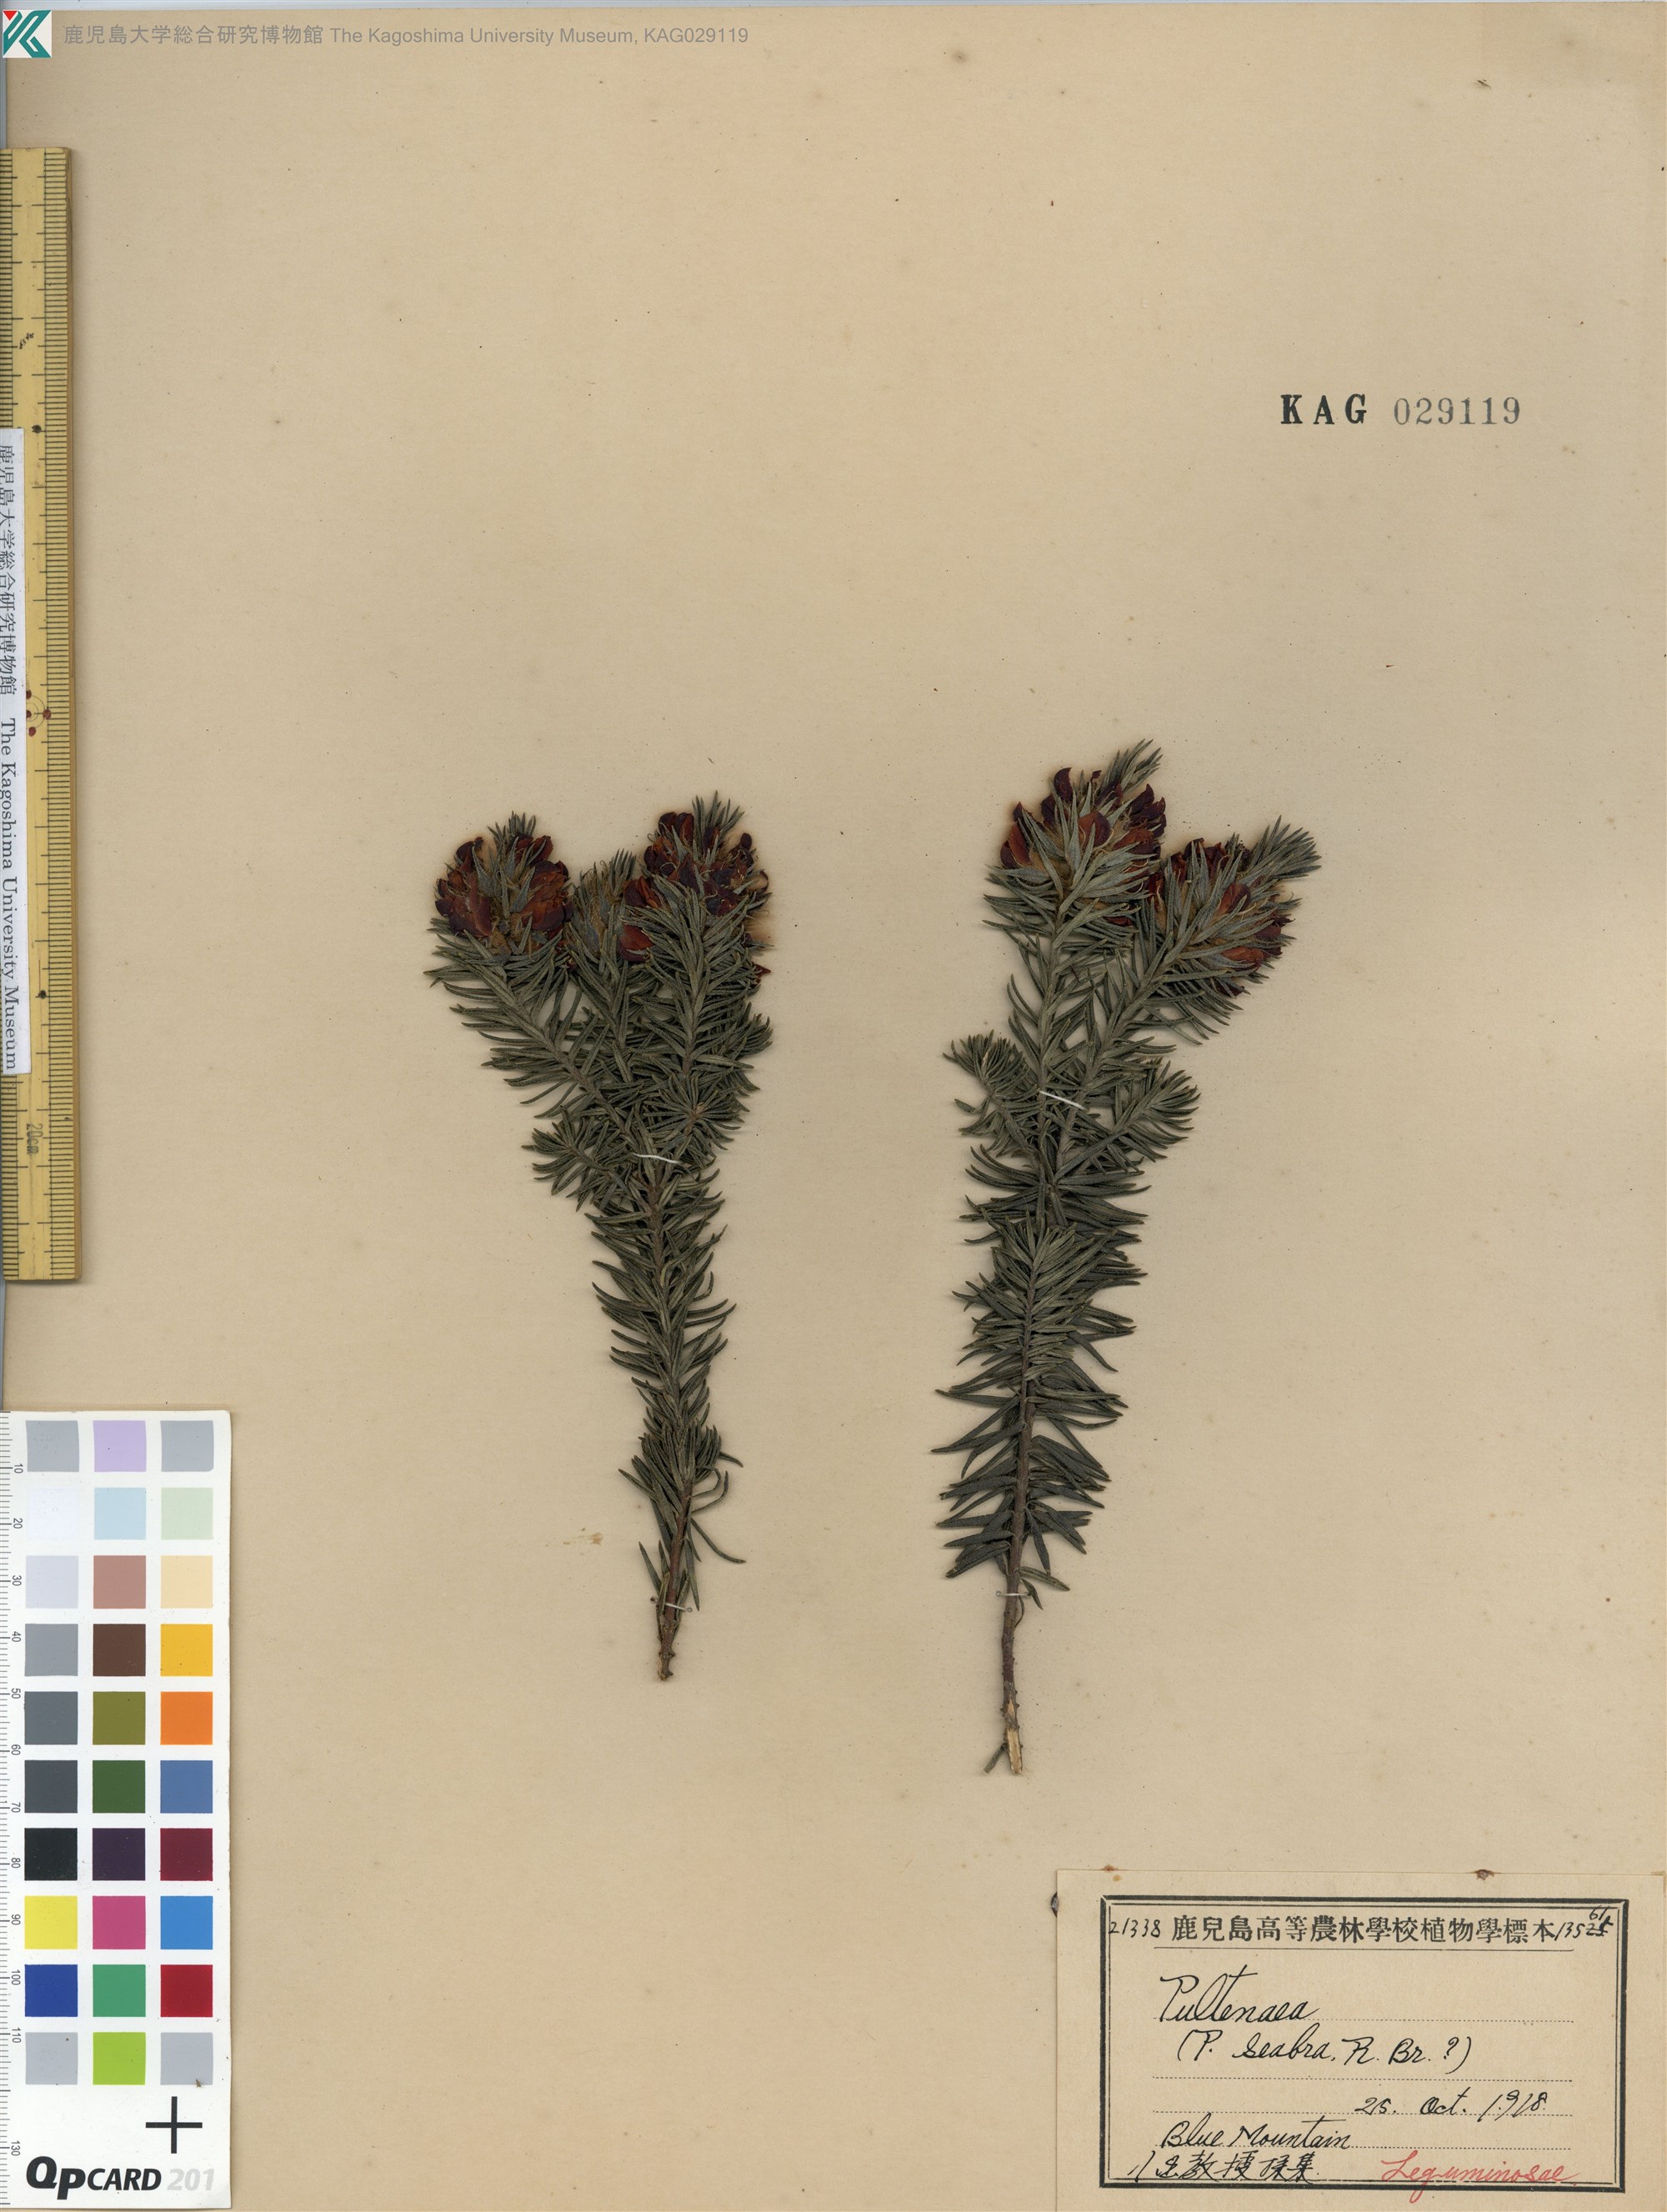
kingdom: Plantae
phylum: Tracheophyta
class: Magnoliopsida
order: Fabales
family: Fabaceae
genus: Pultenaea
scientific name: Pultenaea scabra
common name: Rough bush-pea
